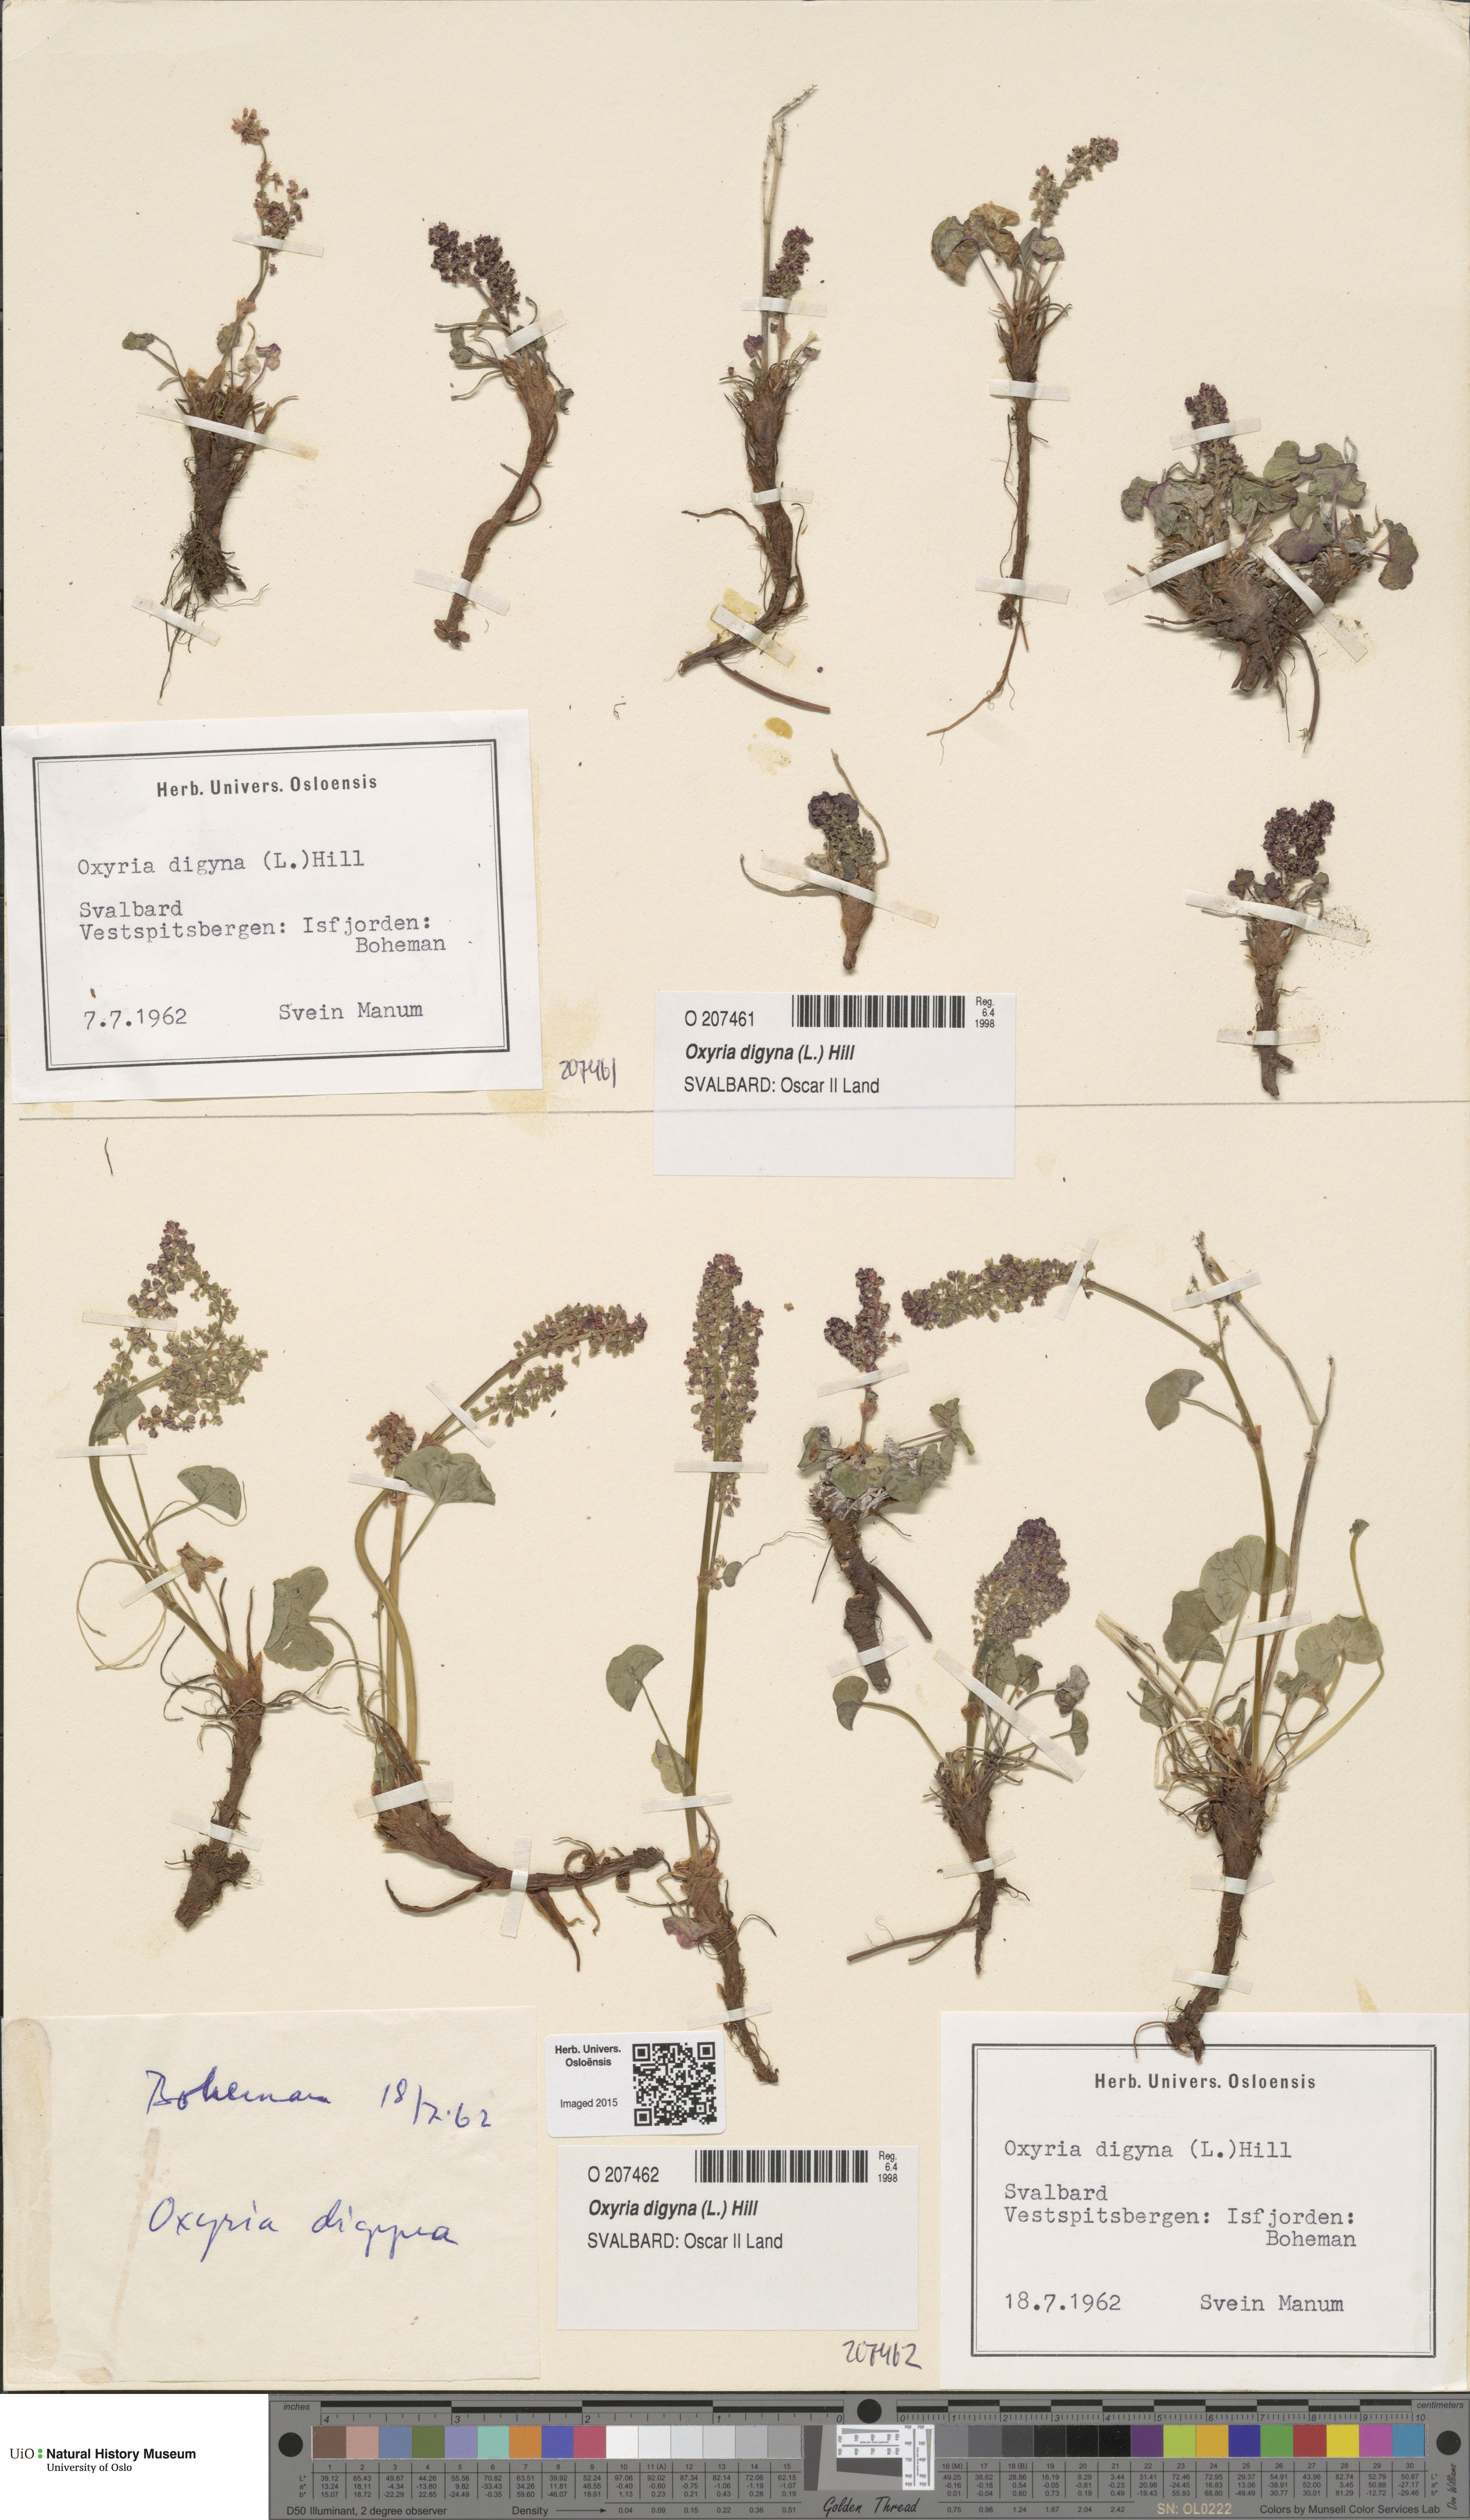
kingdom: Plantae
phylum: Tracheophyta
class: Magnoliopsida
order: Caryophyllales
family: Polygonaceae
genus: Oxyria
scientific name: Oxyria digyna
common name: Alpine mountain-sorrel
